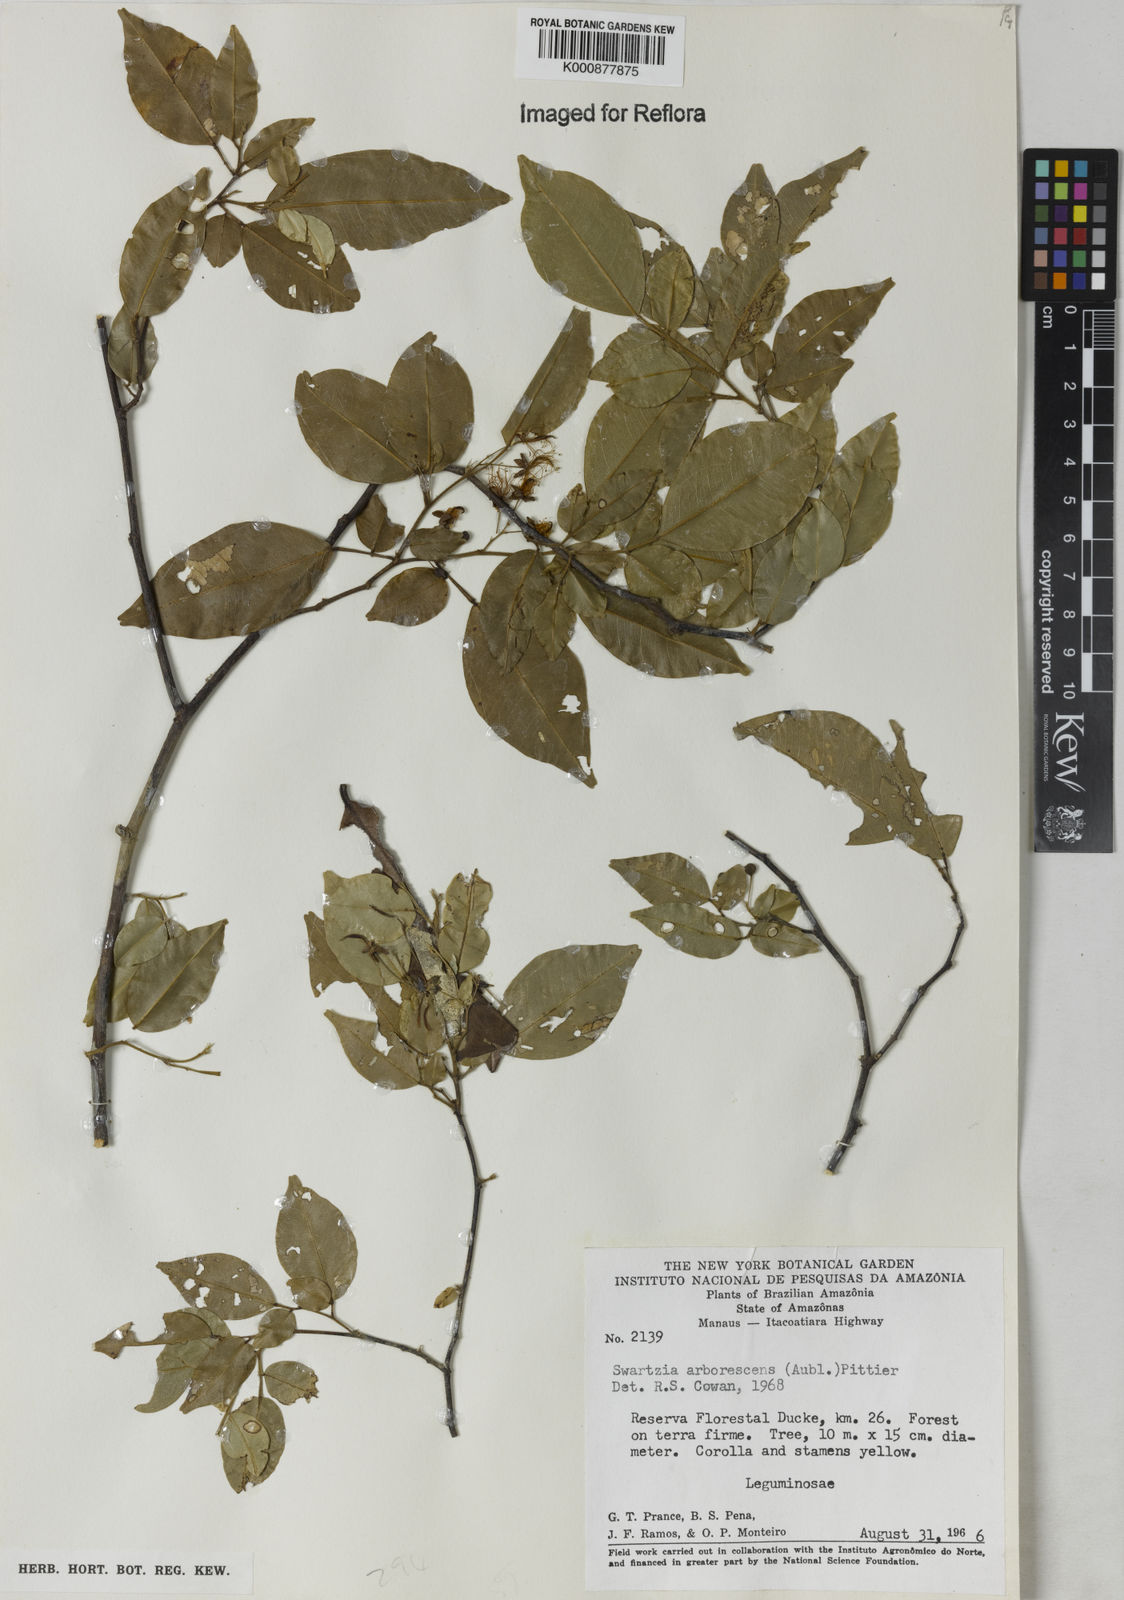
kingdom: Plantae
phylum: Tracheophyta
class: Magnoliopsida
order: Fabales
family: Fabaceae
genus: Swartzia
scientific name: Swartzia arborescens
